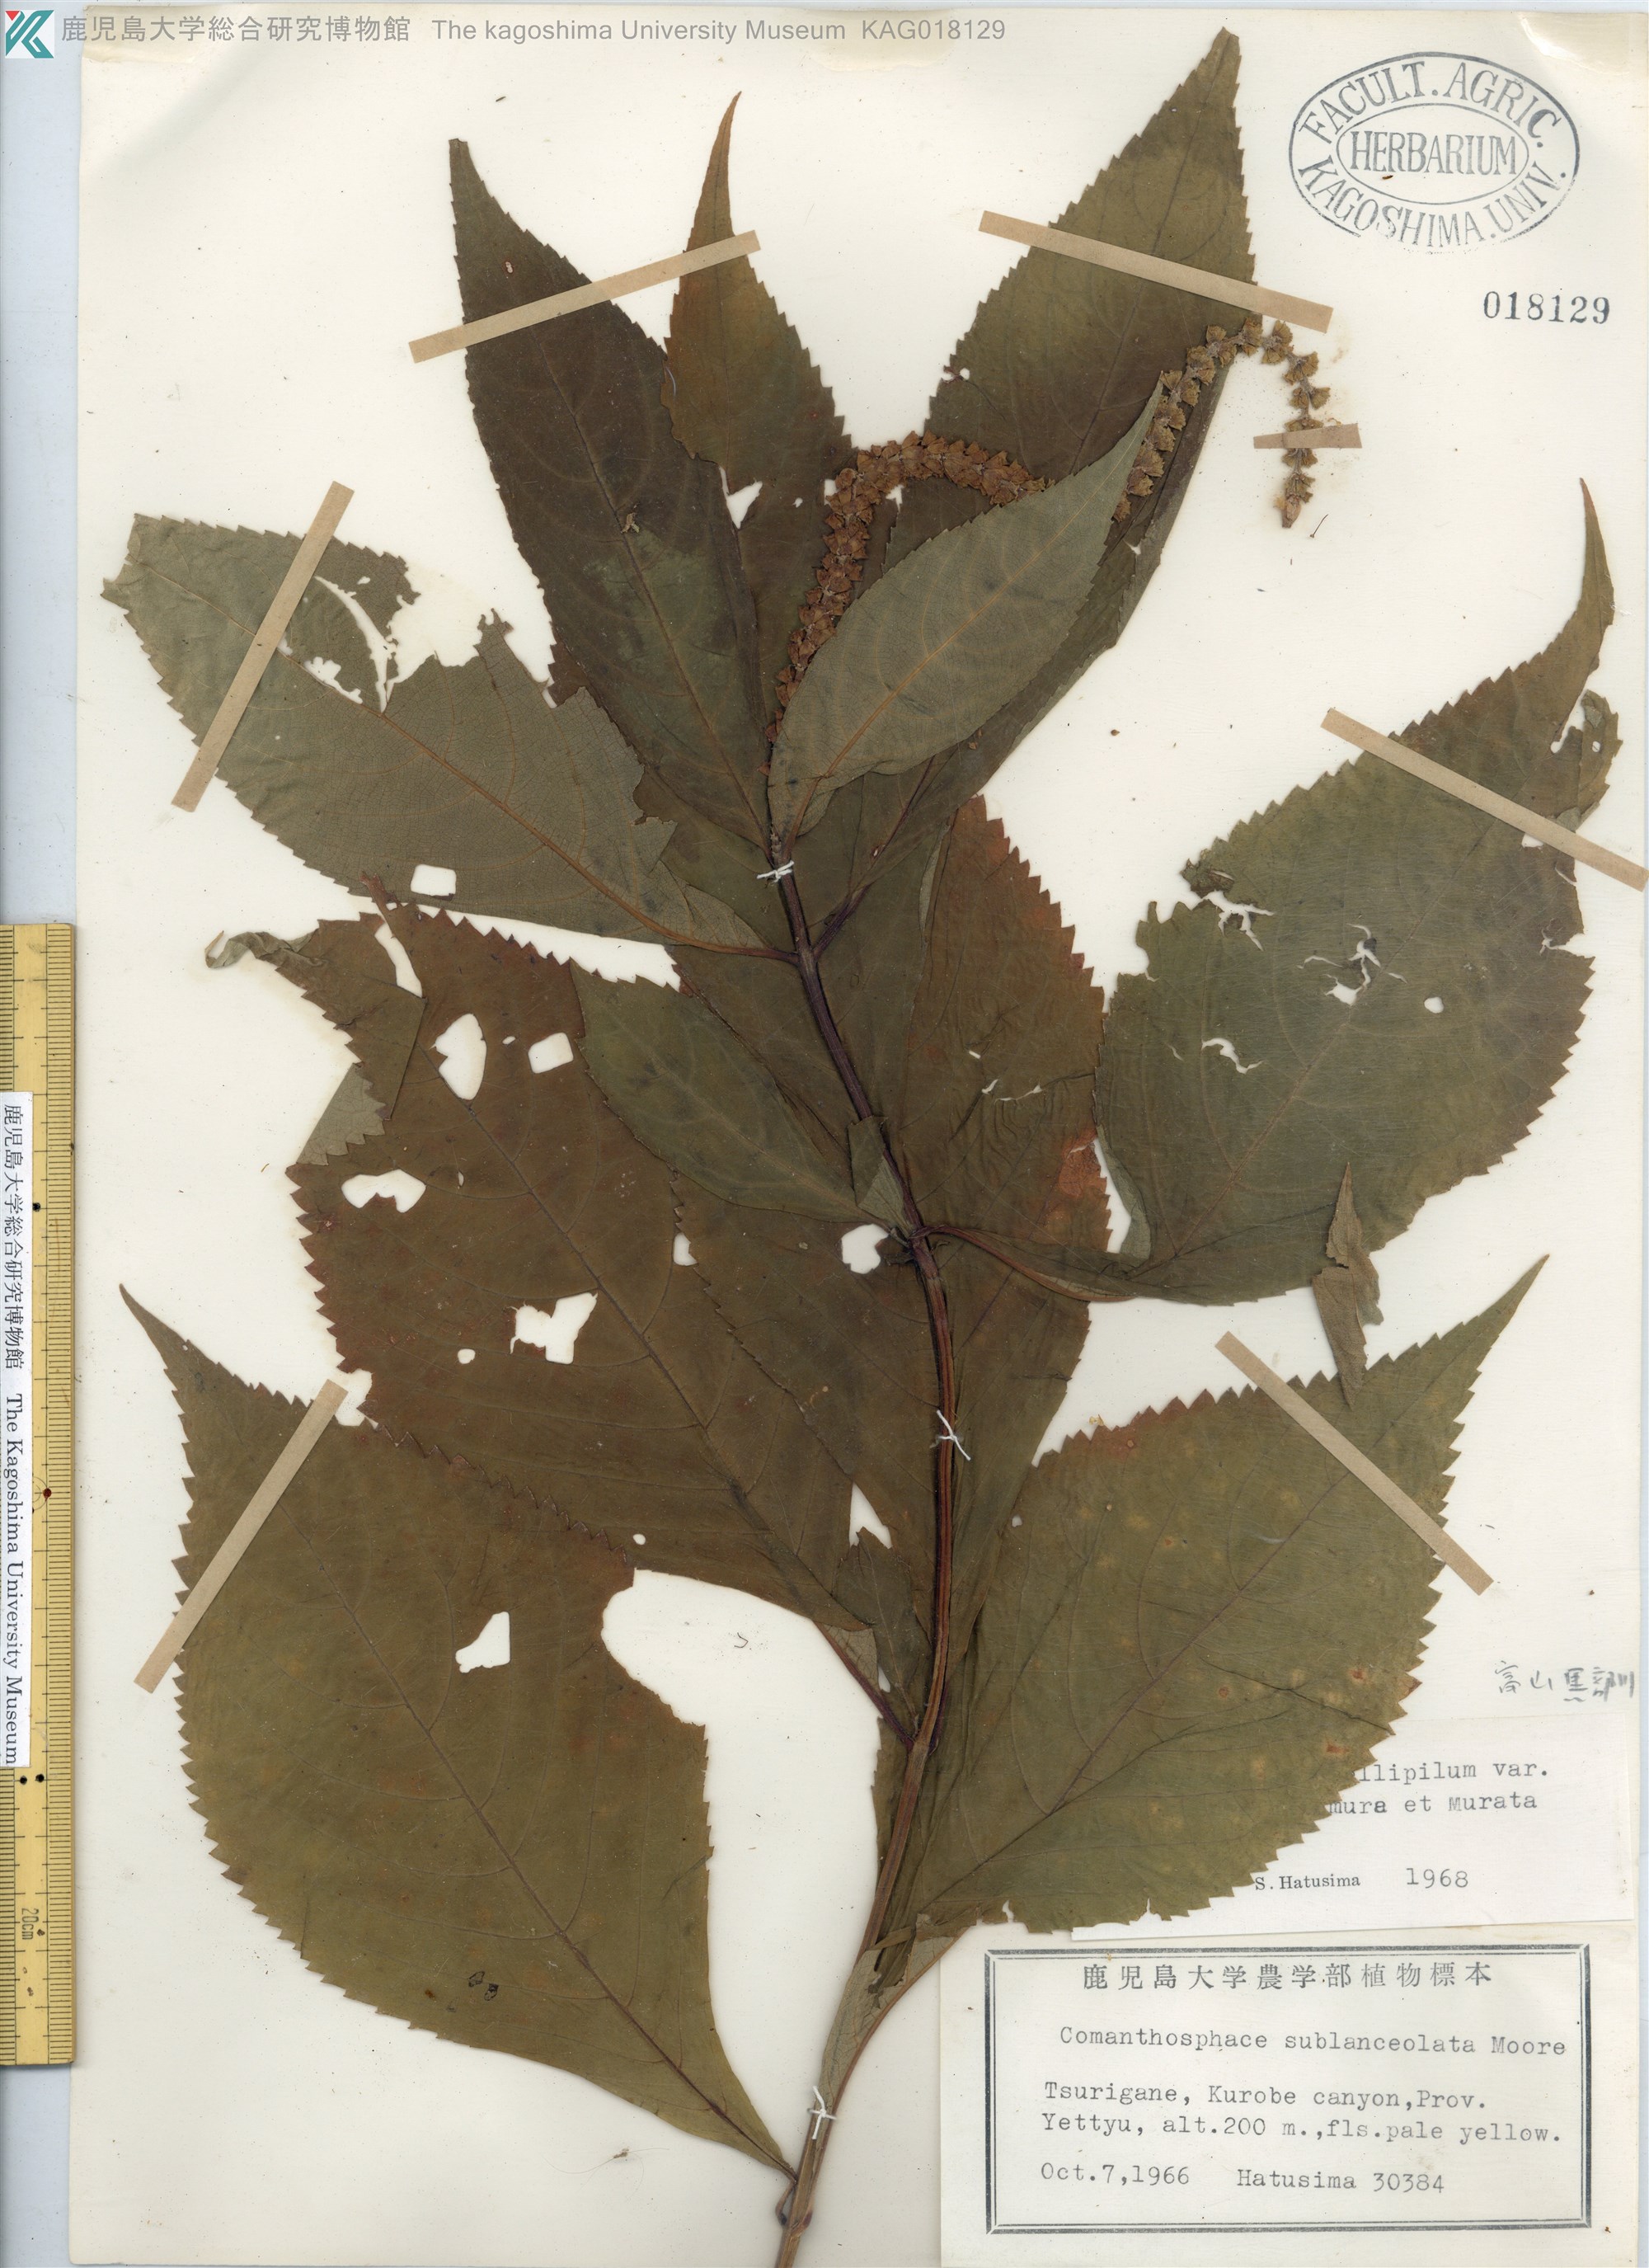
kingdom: Plantae
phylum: Tracheophyta
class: Magnoliopsida
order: Lamiales
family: Lamiaceae
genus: Comanthosphace
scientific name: Comanthosphace japonica
